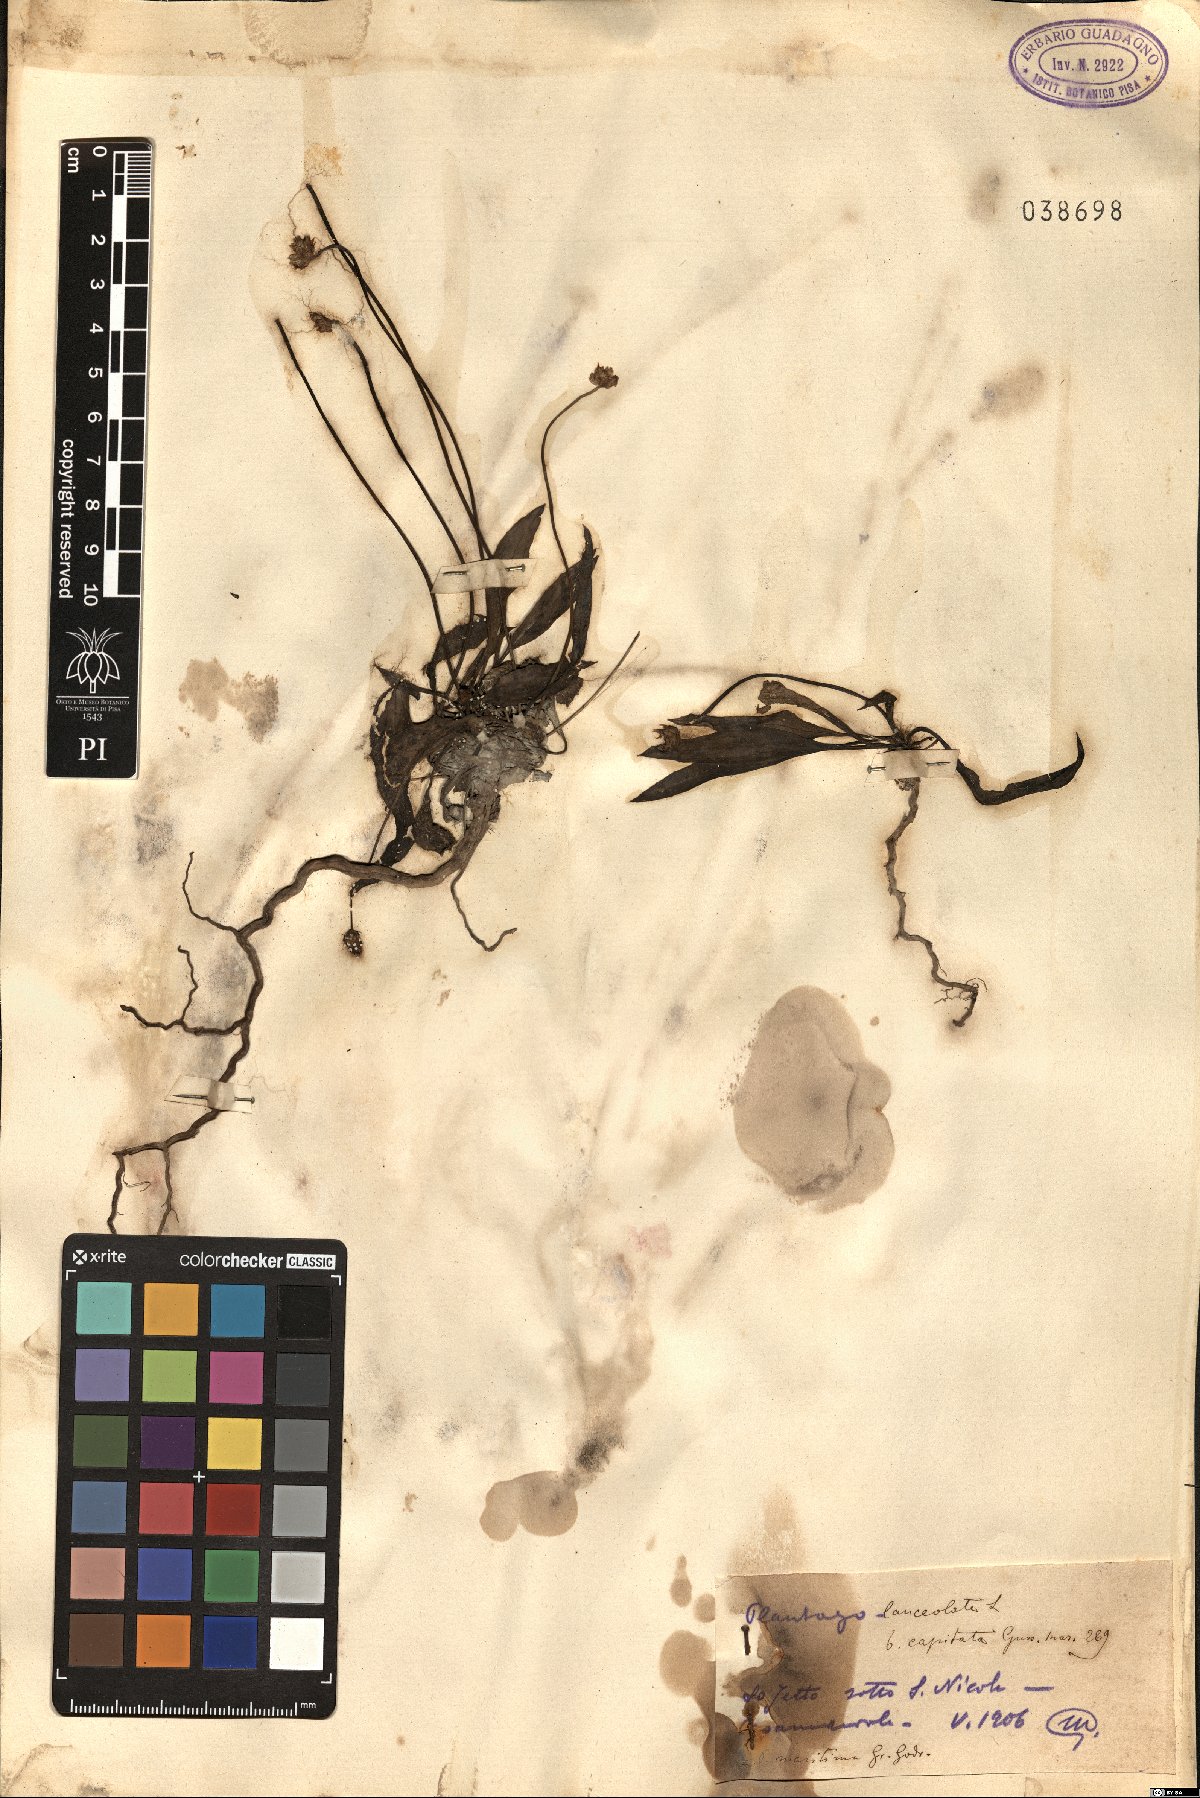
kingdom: Plantae
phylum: Tracheophyta
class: Magnoliopsida
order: Lamiales
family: Plantaginaceae
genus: Plantago
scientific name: Plantago maritima
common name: Sea plantain
